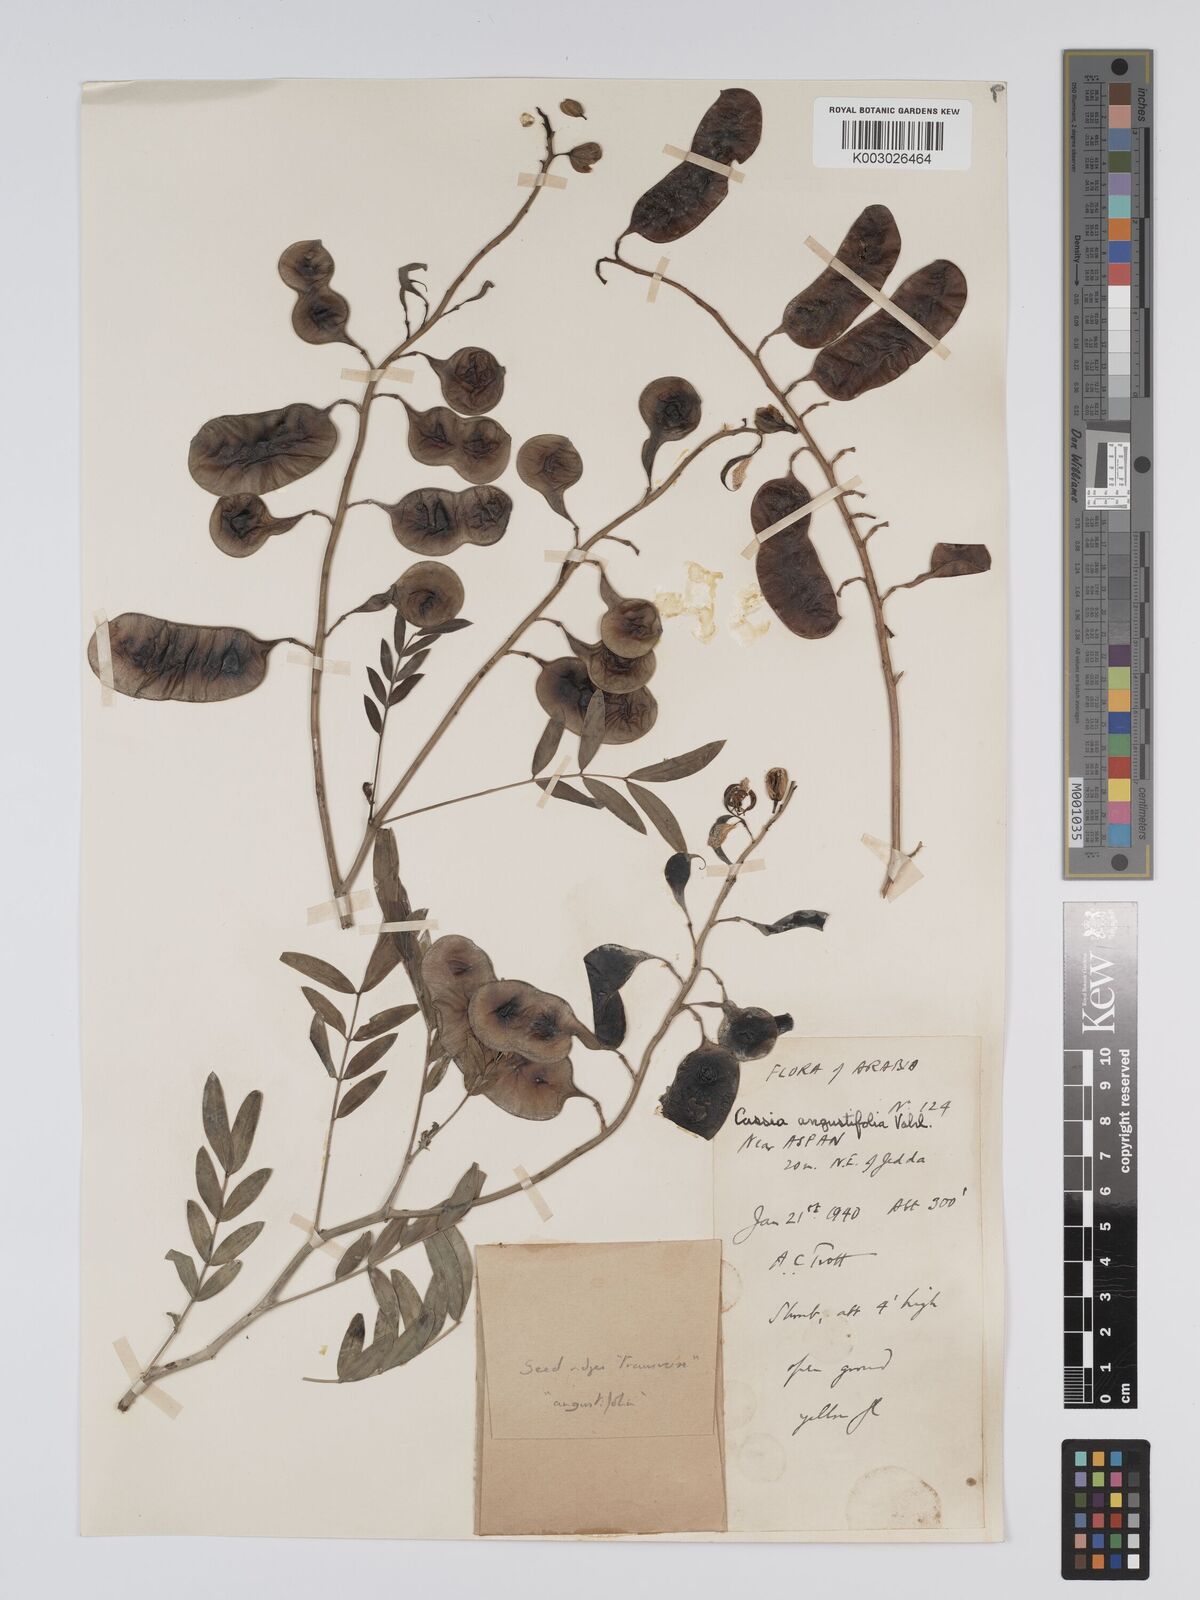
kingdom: Plantae
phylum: Tracheophyta
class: Magnoliopsida
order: Fabales
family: Fabaceae
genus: Senna
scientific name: Senna alexandrina
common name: True senna
